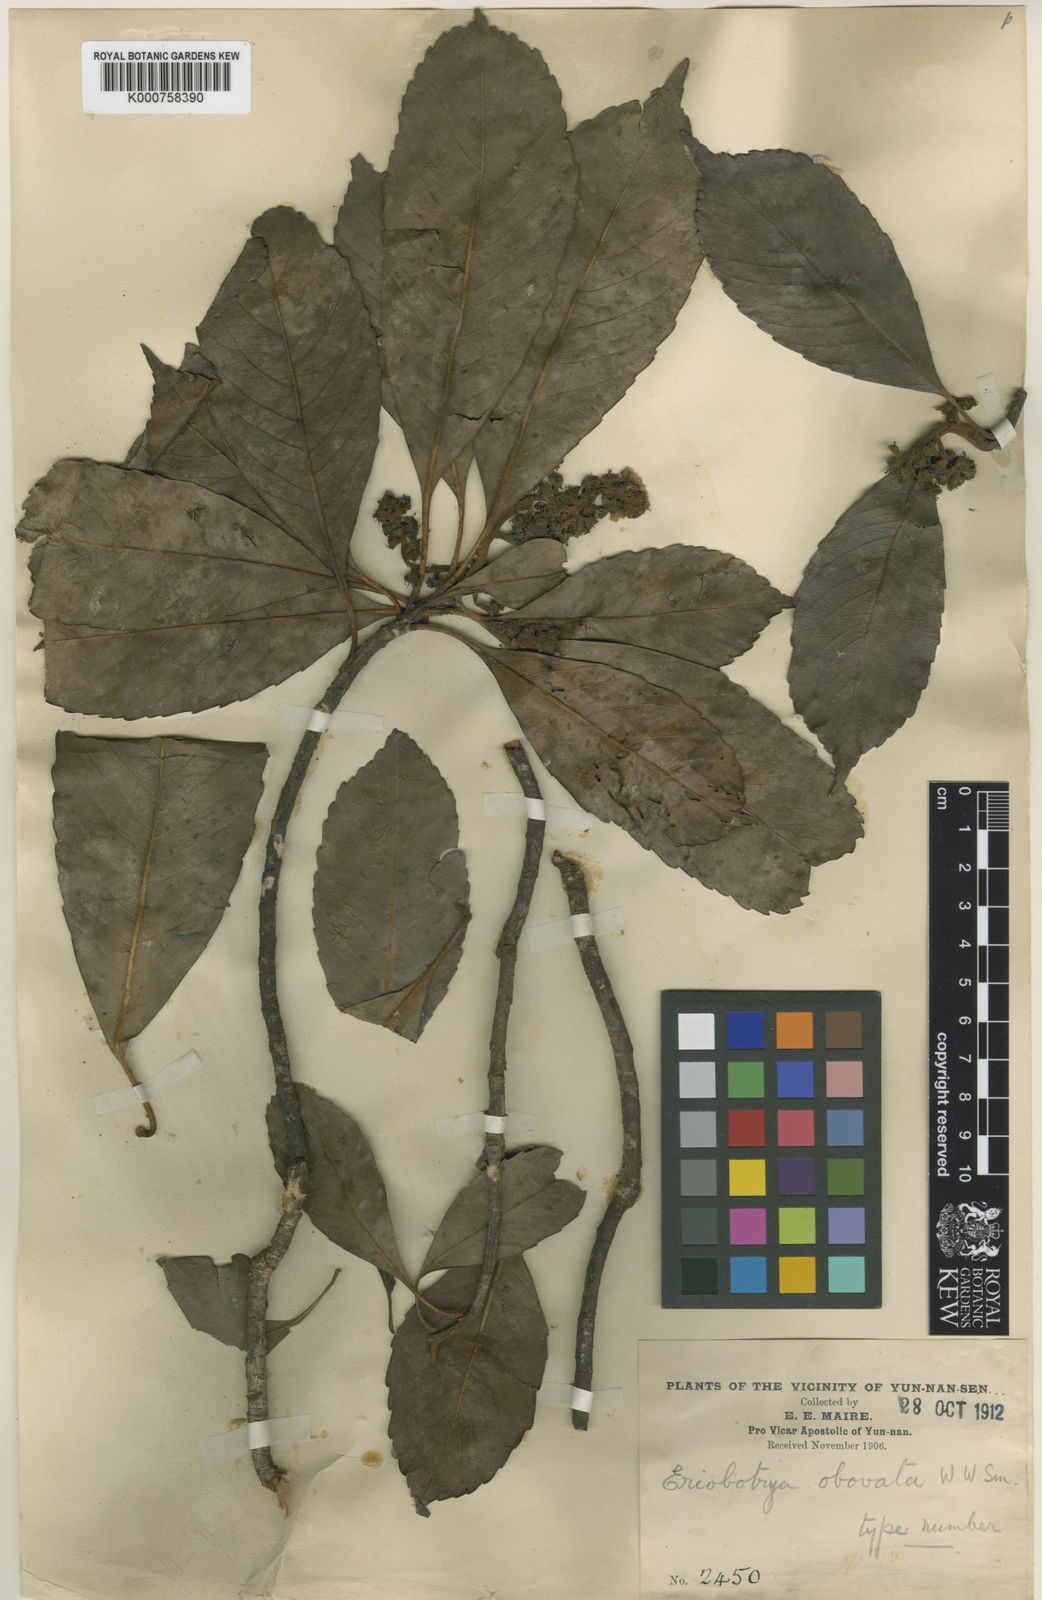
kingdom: Plantae
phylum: Tracheophyta
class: Magnoliopsida
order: Rosales
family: Rosaceae
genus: Rhaphiolepis
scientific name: Rhaphiolepis obovata
